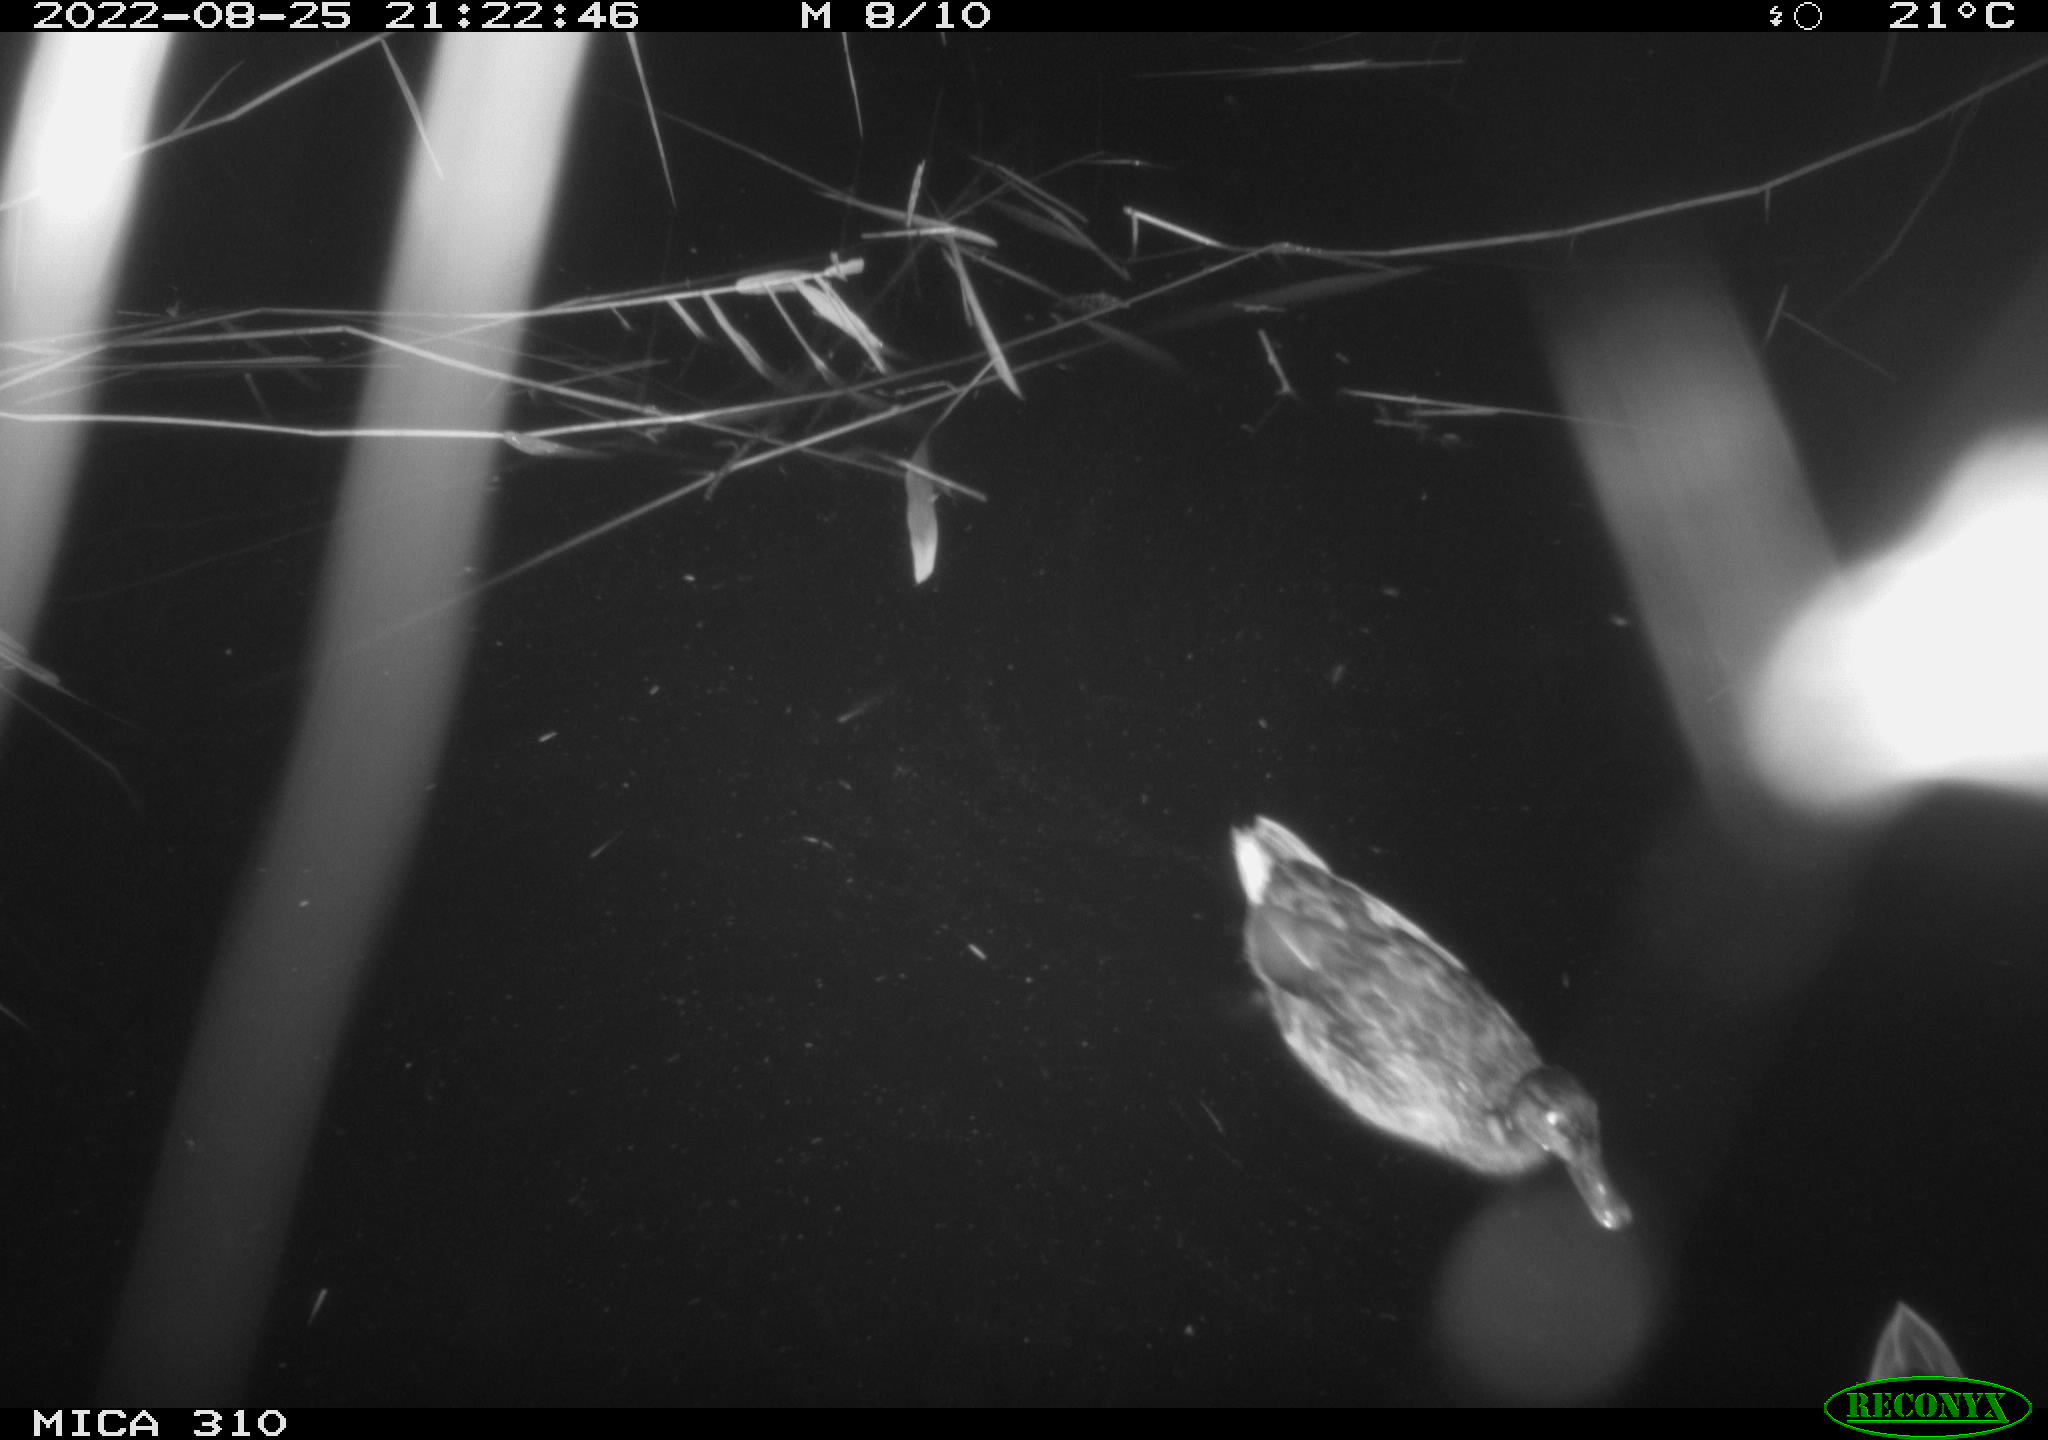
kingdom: Animalia
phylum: Chordata
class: Aves
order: Anseriformes
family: Anatidae
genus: Anas
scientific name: Anas platyrhynchos
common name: Mallard
